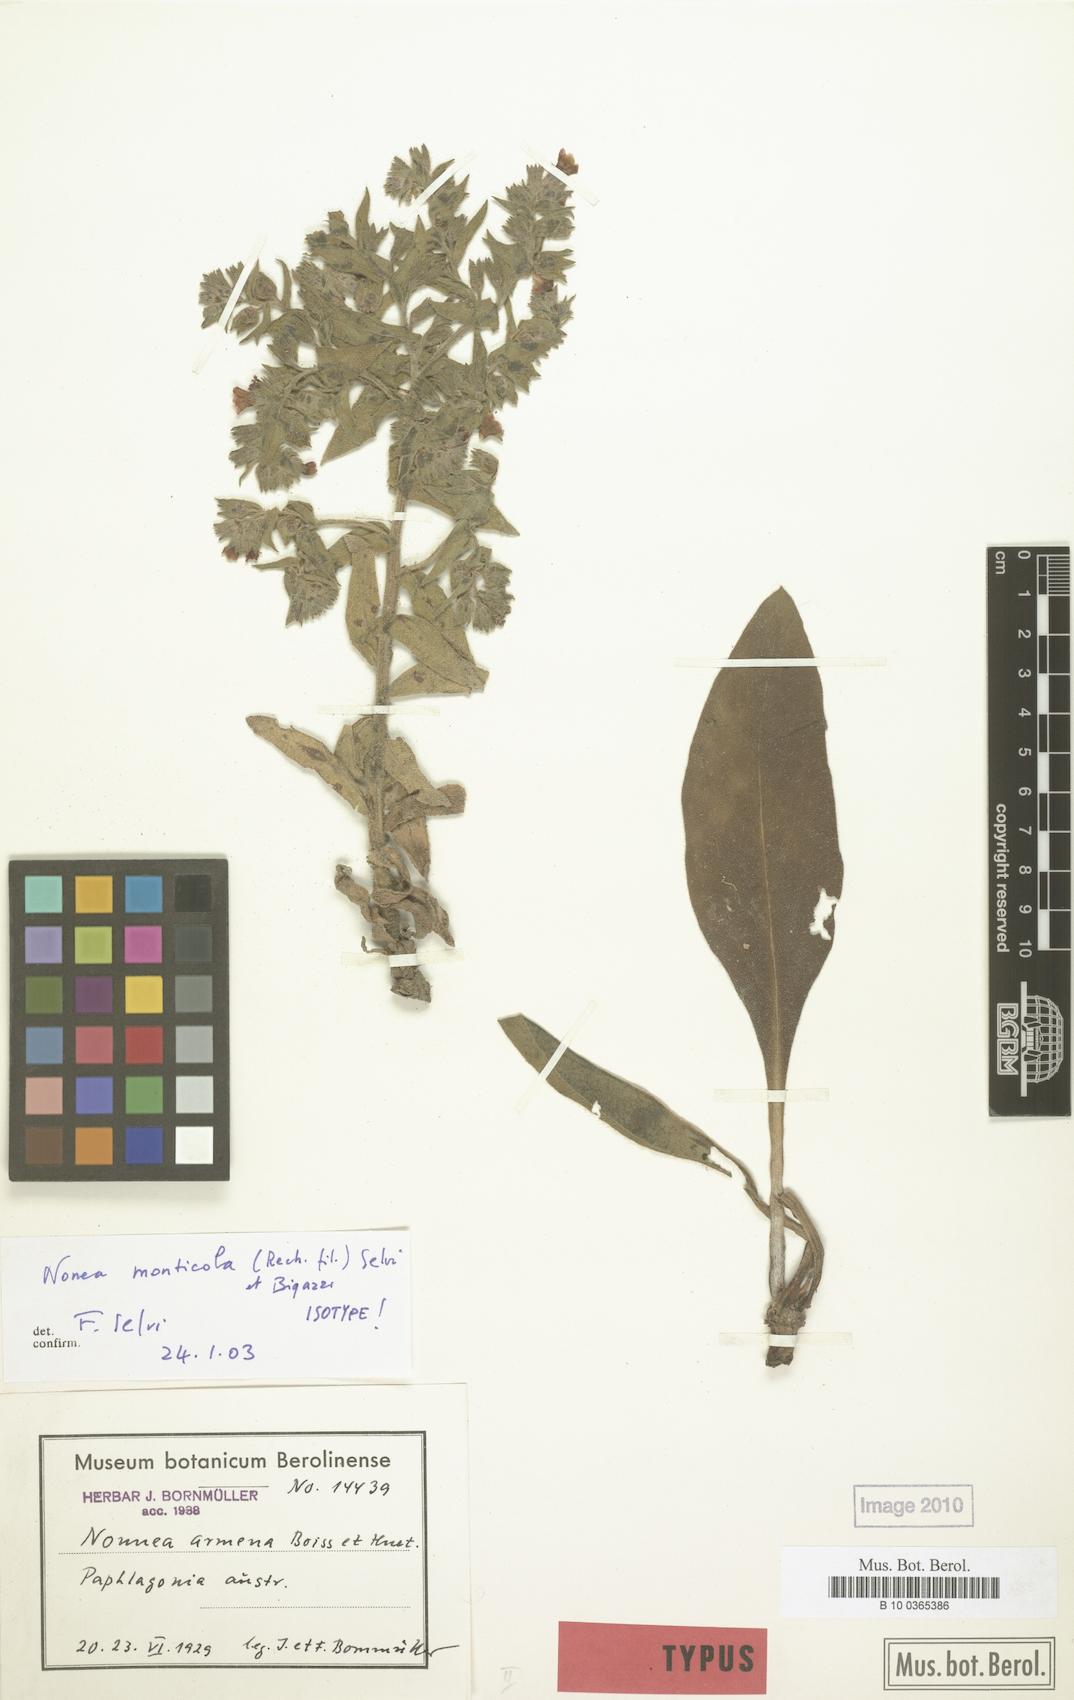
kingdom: Plantae
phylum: Tracheophyta
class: Magnoliopsida
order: Boraginales
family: Boraginaceae
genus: Nonea
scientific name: Nonea monticola
